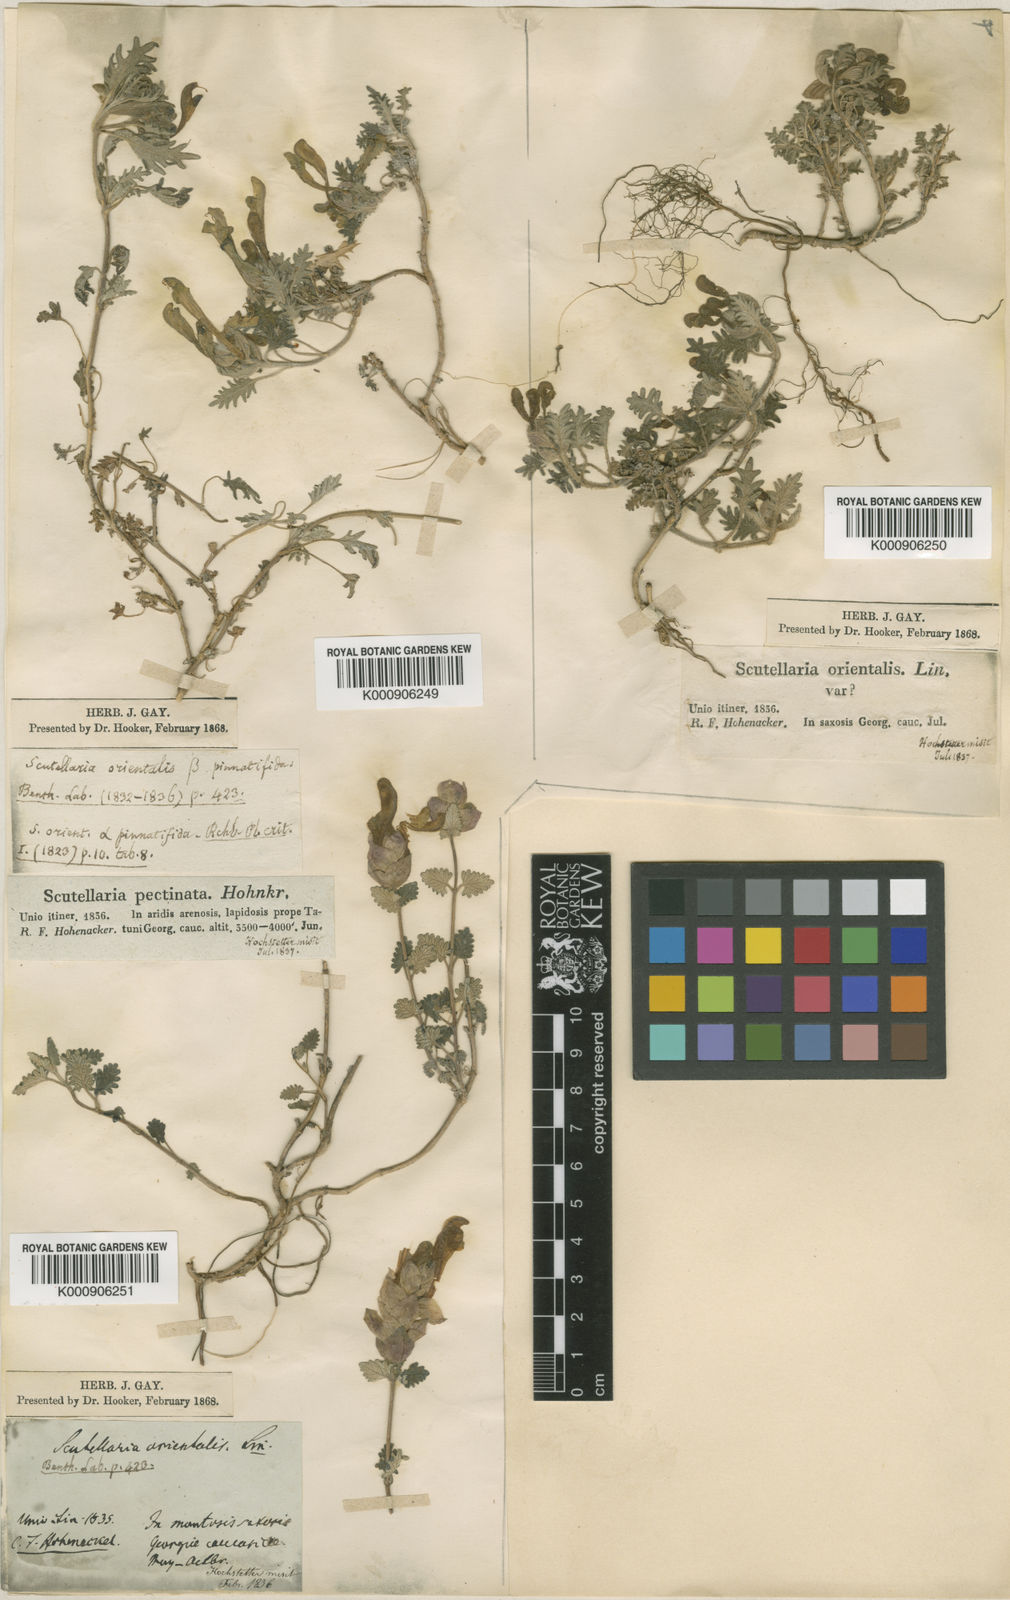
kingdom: Plantae
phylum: Tracheophyta
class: Magnoliopsida
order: Lamiales
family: Lamiaceae
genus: Scutellaria
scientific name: Scutellaria orientalis
